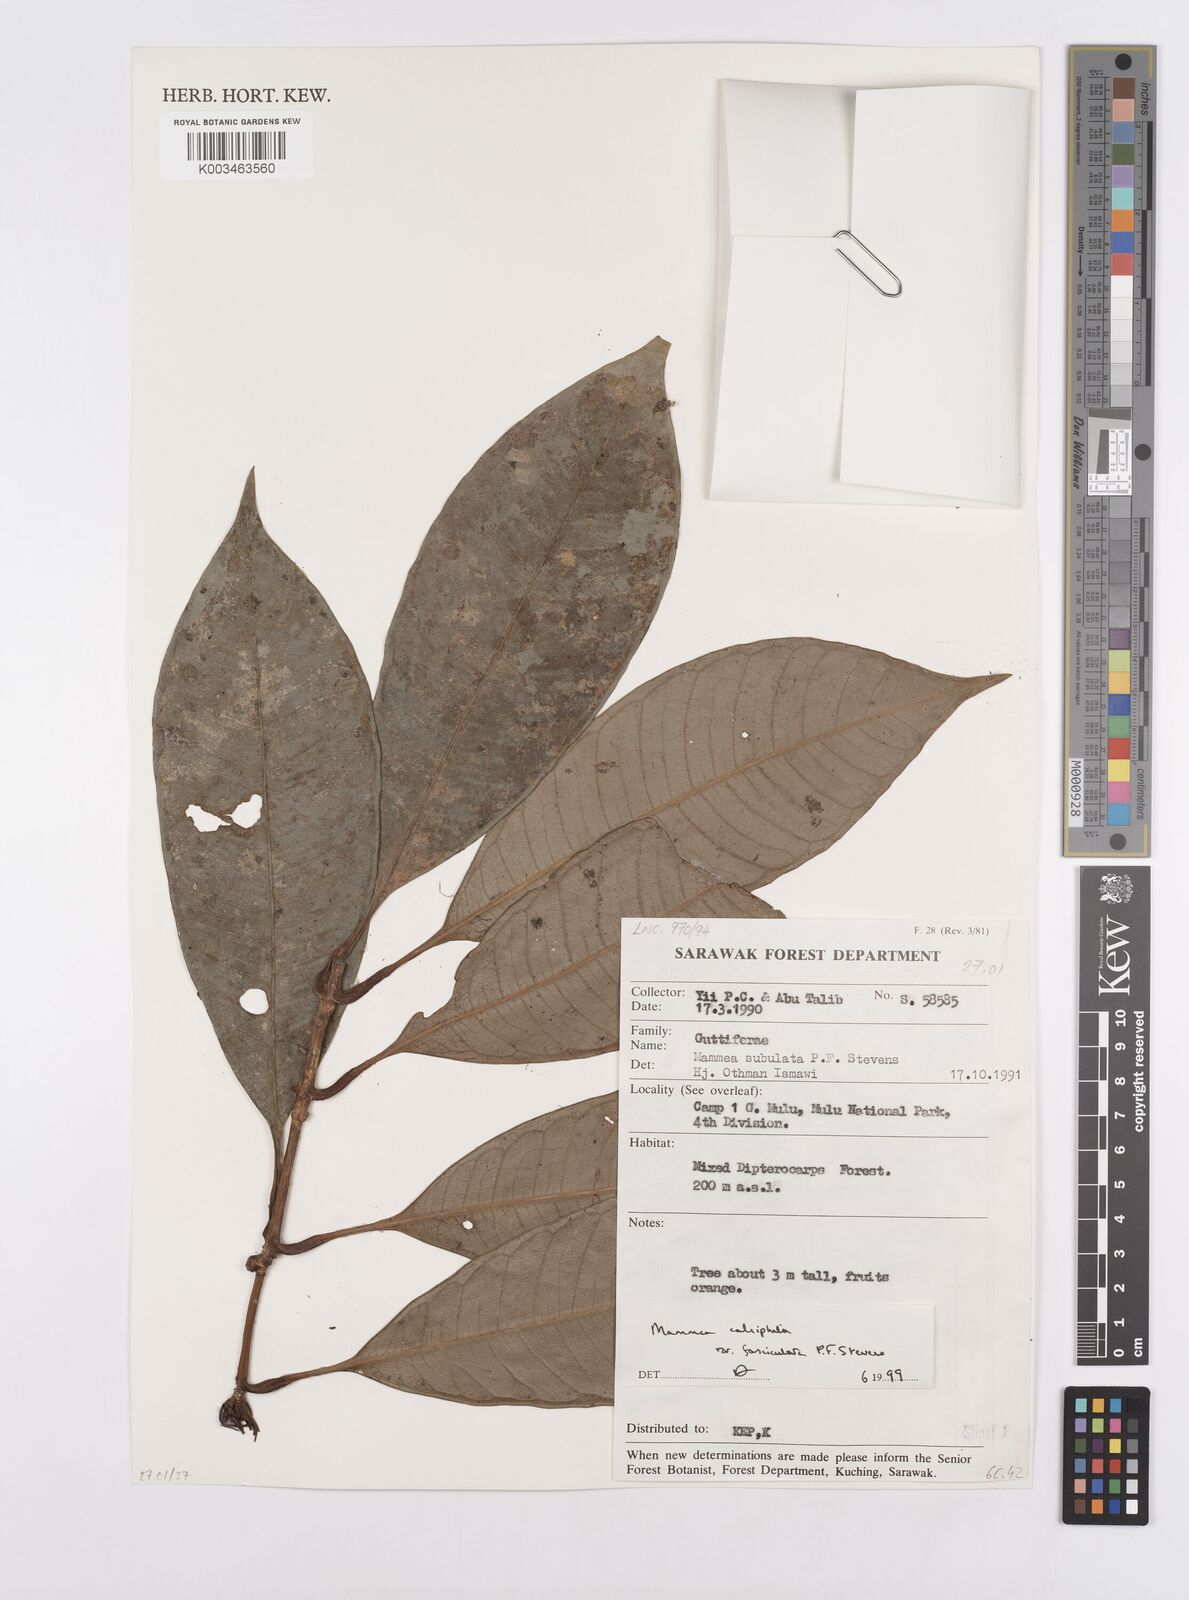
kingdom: Plantae
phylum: Tracheophyta
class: Magnoliopsida
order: Malpighiales
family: Calophyllaceae
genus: Mammea
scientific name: Mammea calciphila
